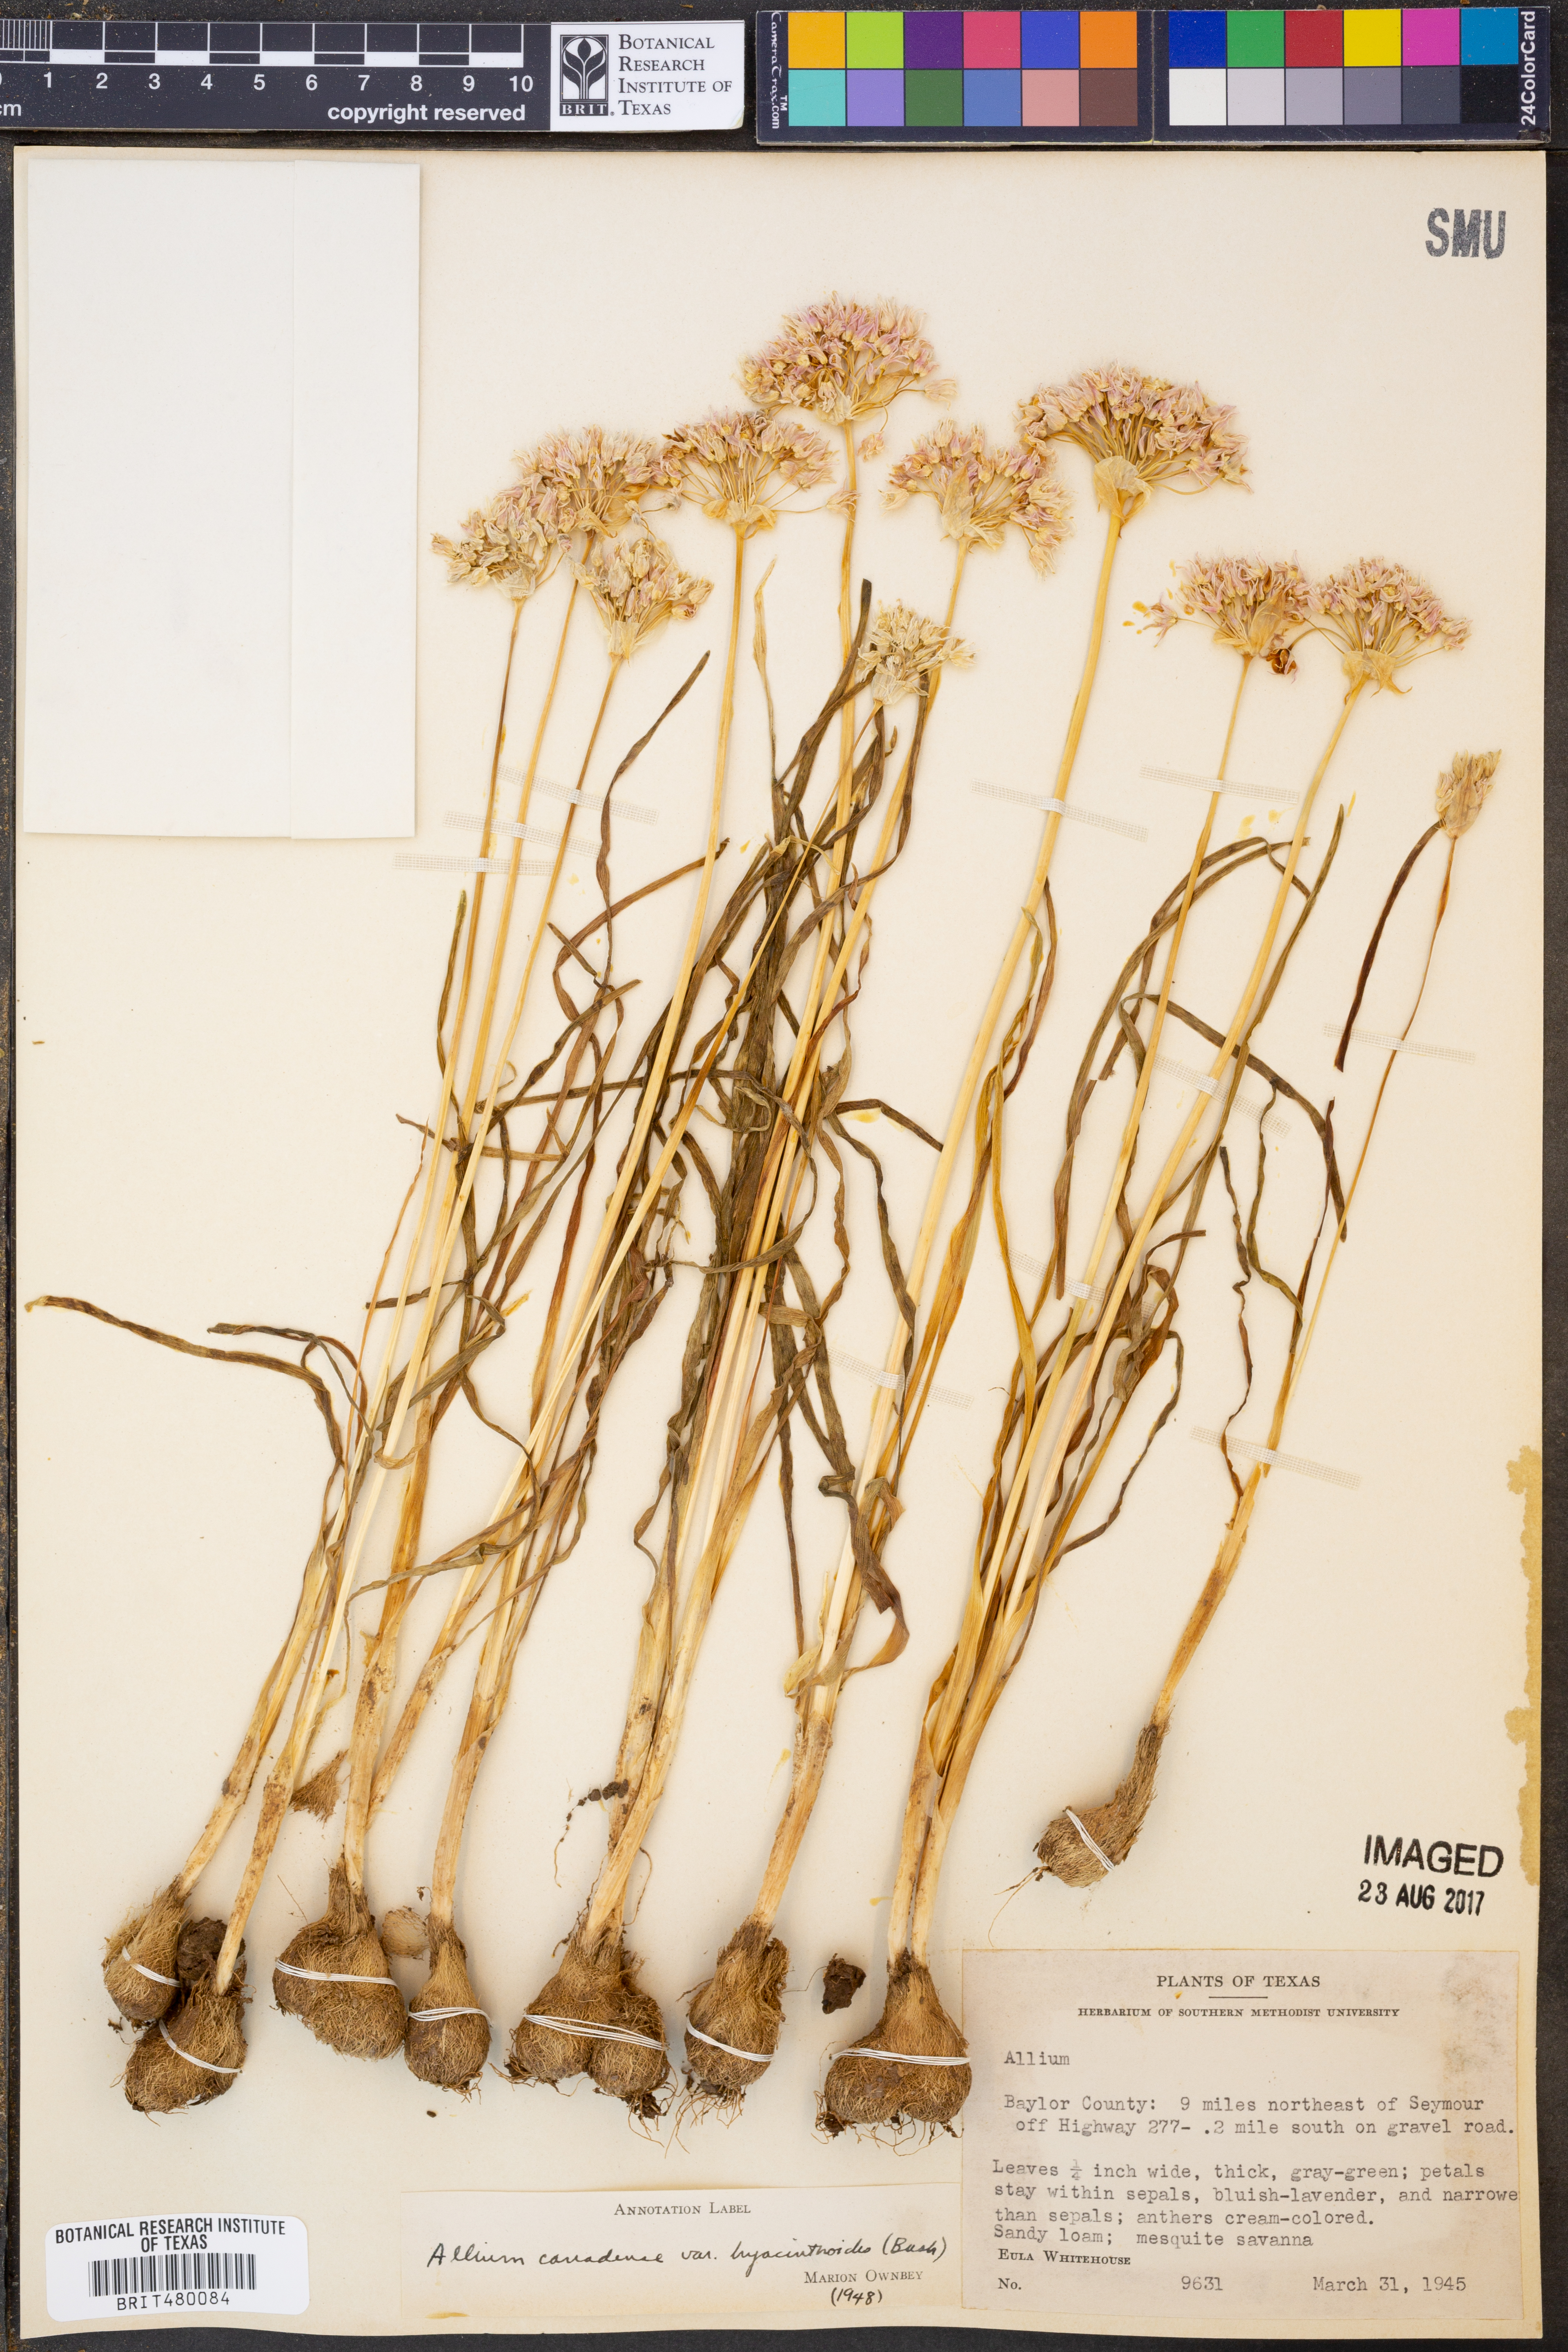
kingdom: Plantae
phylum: Tracheophyta
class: Liliopsida
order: Asparagales
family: Amaryllidaceae
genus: Allium
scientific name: Allium canadense
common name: Meadow garlic
